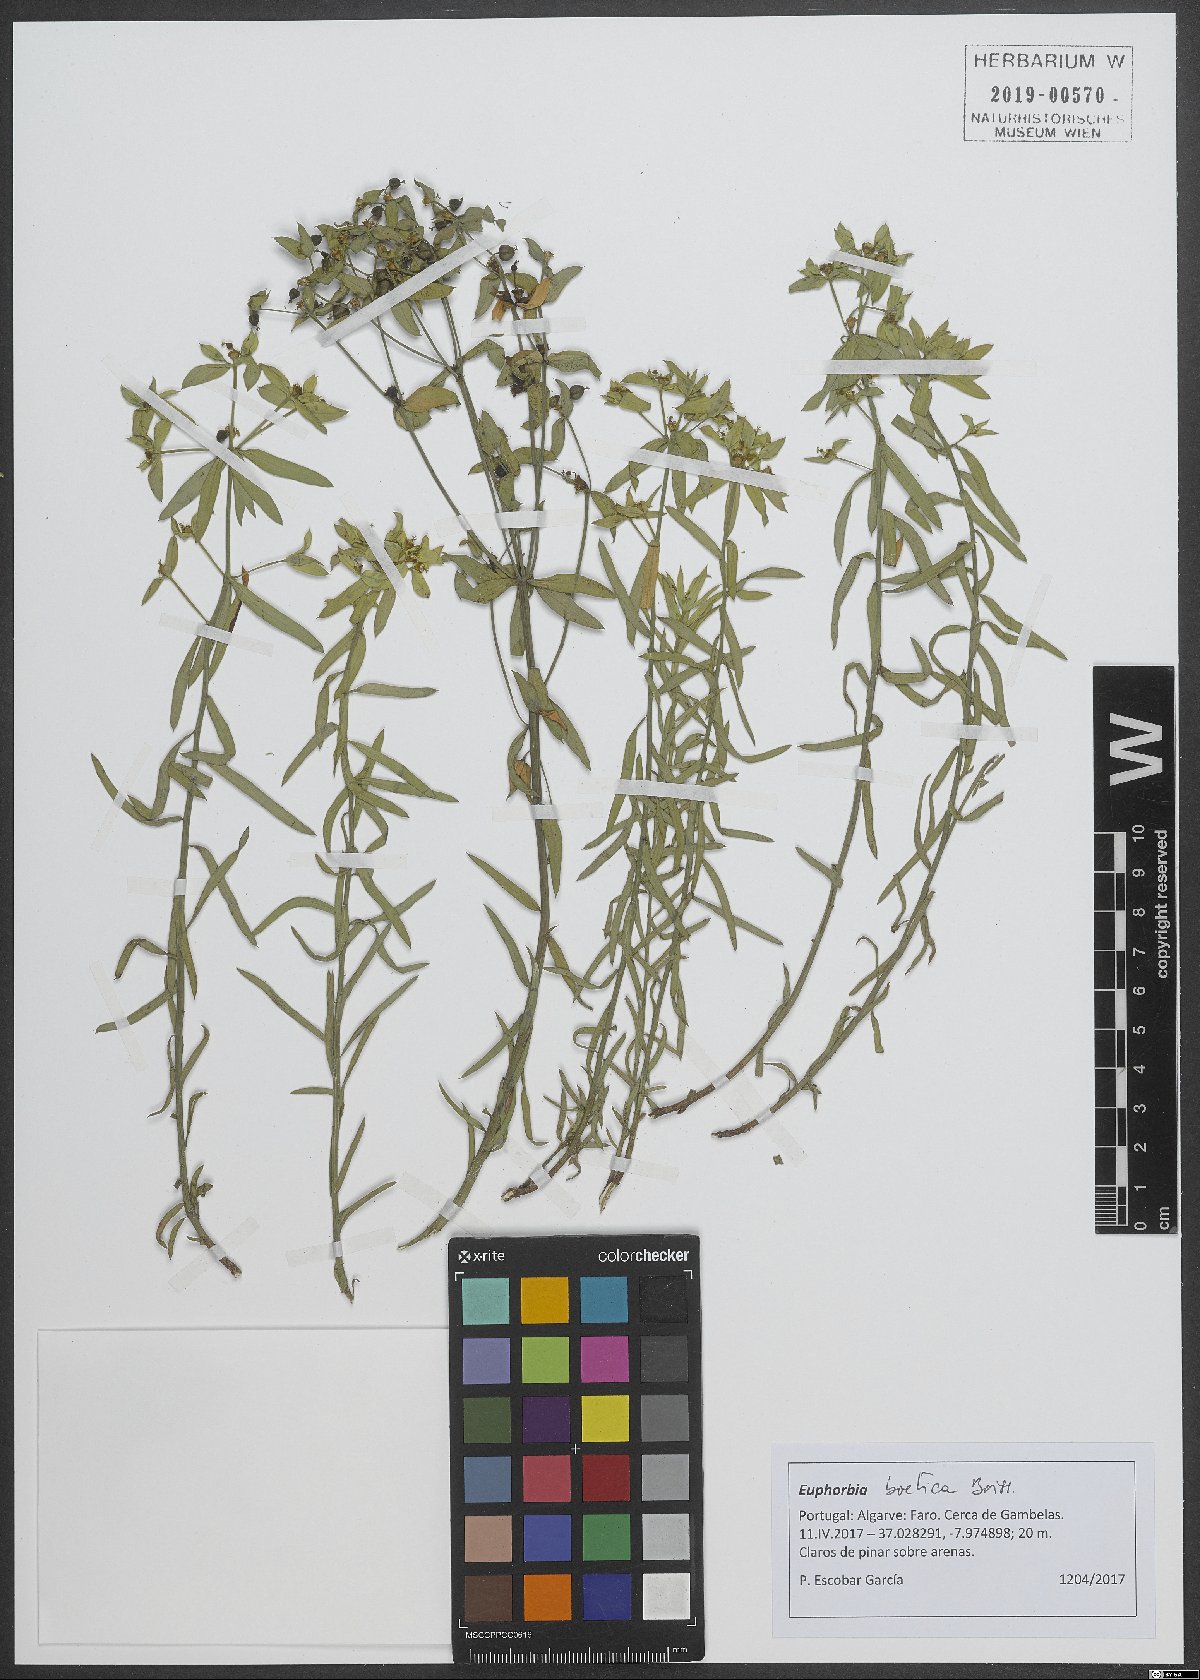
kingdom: Plantae
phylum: Tracheophyta
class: Magnoliopsida
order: Malpighiales
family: Euphorbiaceae
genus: Euphorbia
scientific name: Euphorbia boetica
